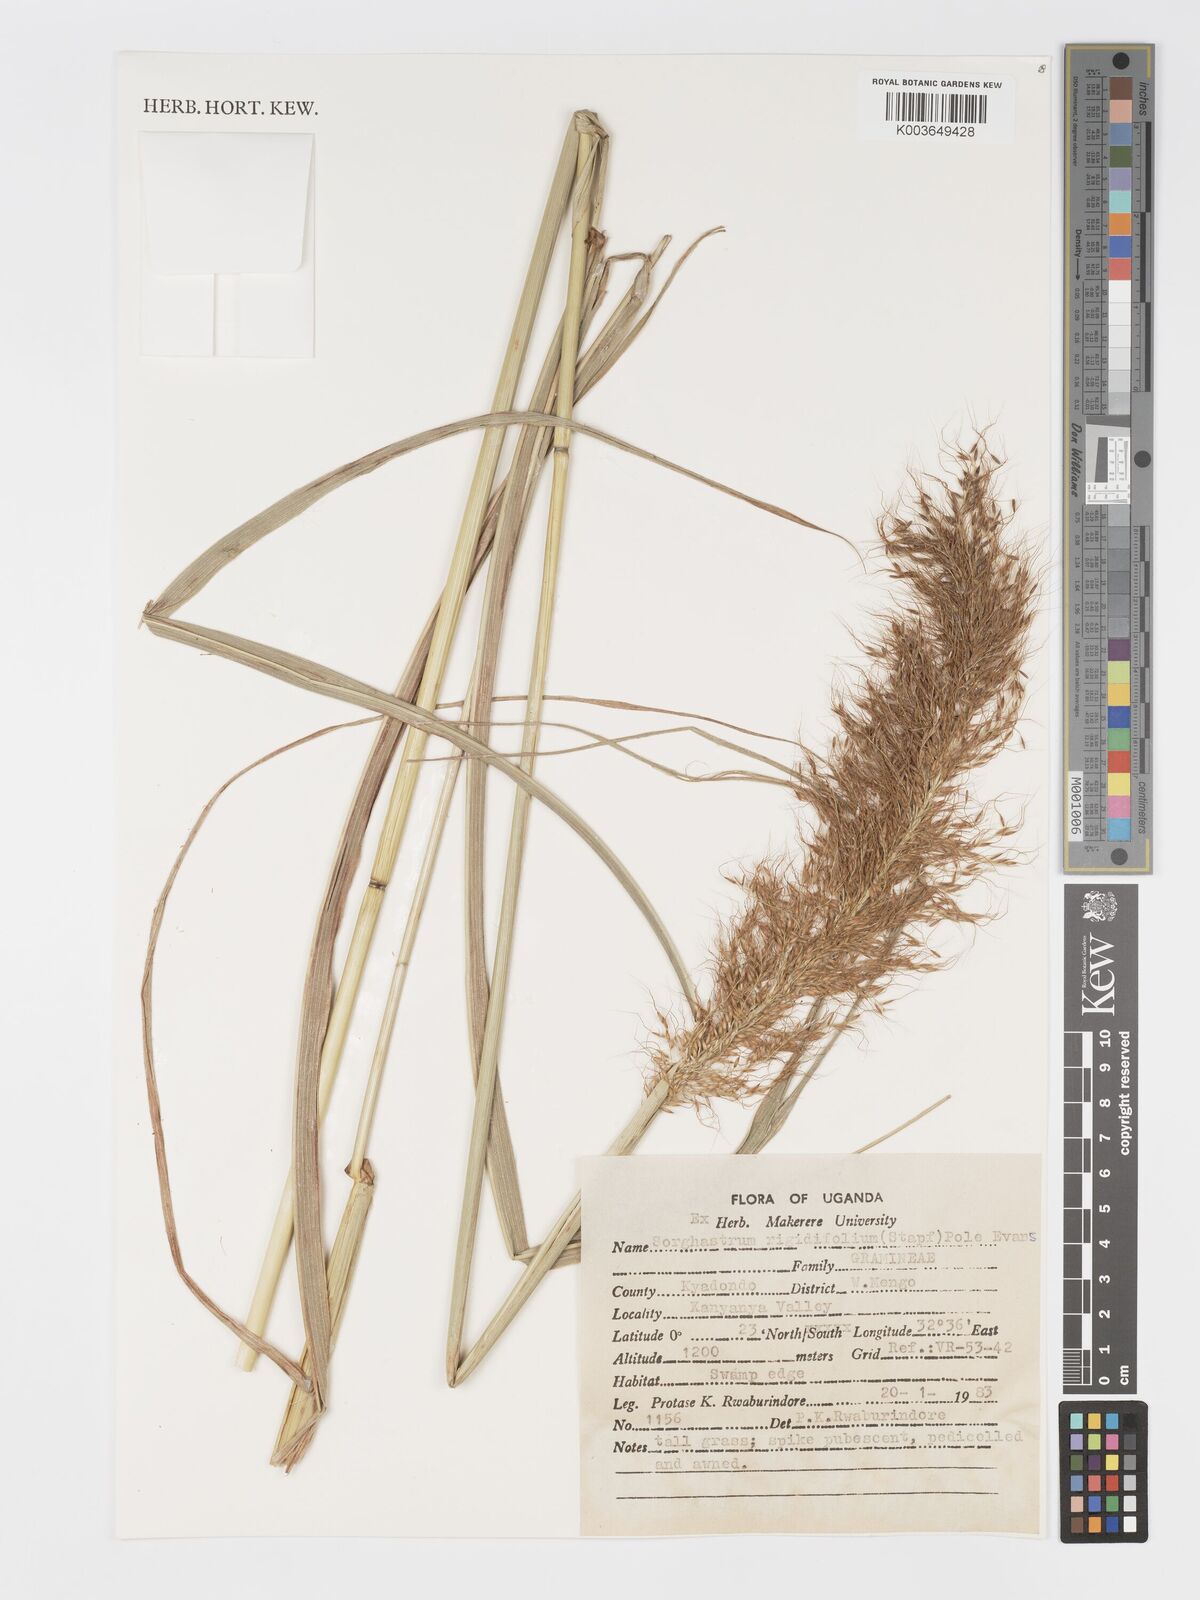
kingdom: Plantae
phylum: Tracheophyta
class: Liliopsida
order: Poales
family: Poaceae
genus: Sorghastrum
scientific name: Sorghastrum stipoides
